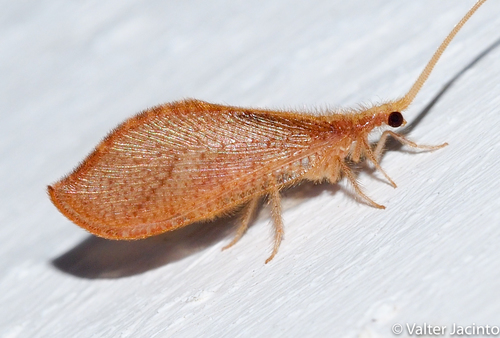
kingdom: Animalia
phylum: Arthropoda
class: Insecta
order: Neuroptera
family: Berothidae
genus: Isoscelipteron
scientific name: Isoscelipteron glaserellum
